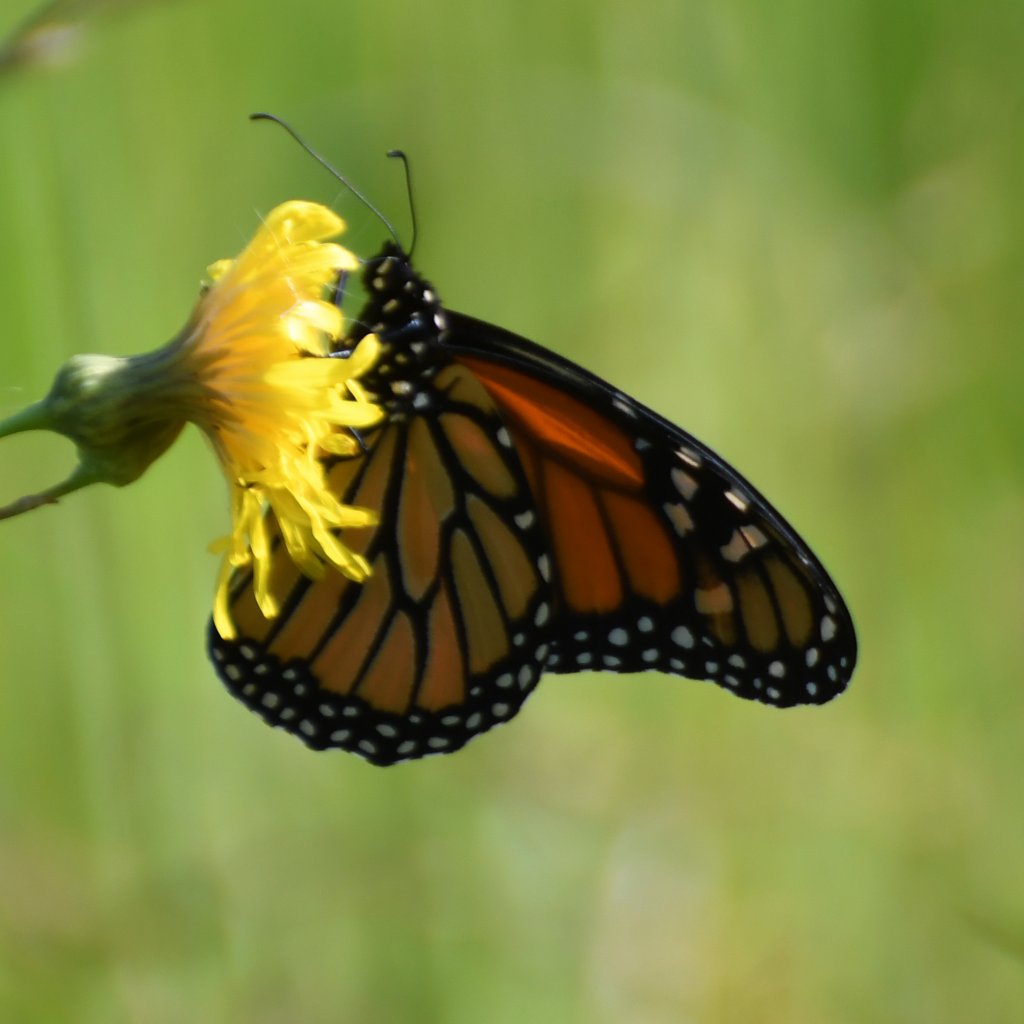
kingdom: Animalia
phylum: Arthropoda
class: Insecta
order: Lepidoptera
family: Nymphalidae
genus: Danaus
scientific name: Danaus plexippus
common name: Monarch
